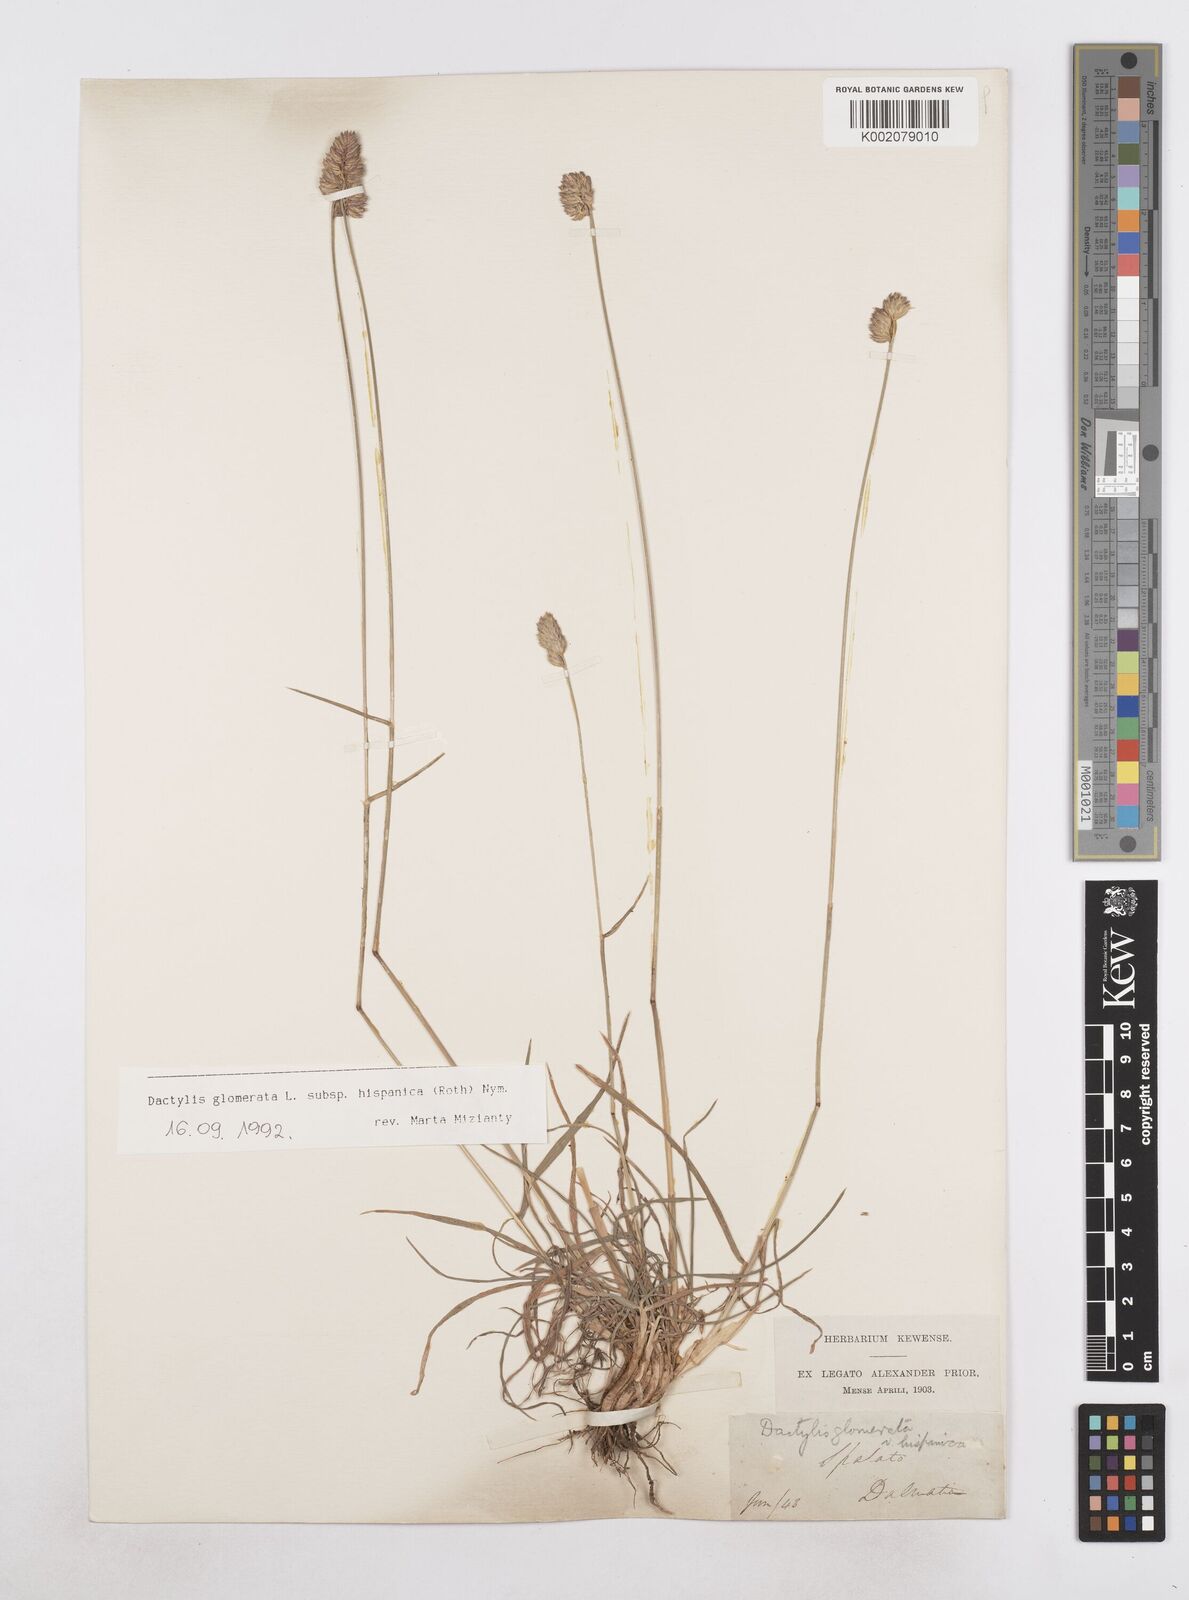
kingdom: Plantae
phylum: Tracheophyta
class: Liliopsida
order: Poales
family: Poaceae
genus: Dactylis
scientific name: Dactylis glomerata
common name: Orchardgrass
